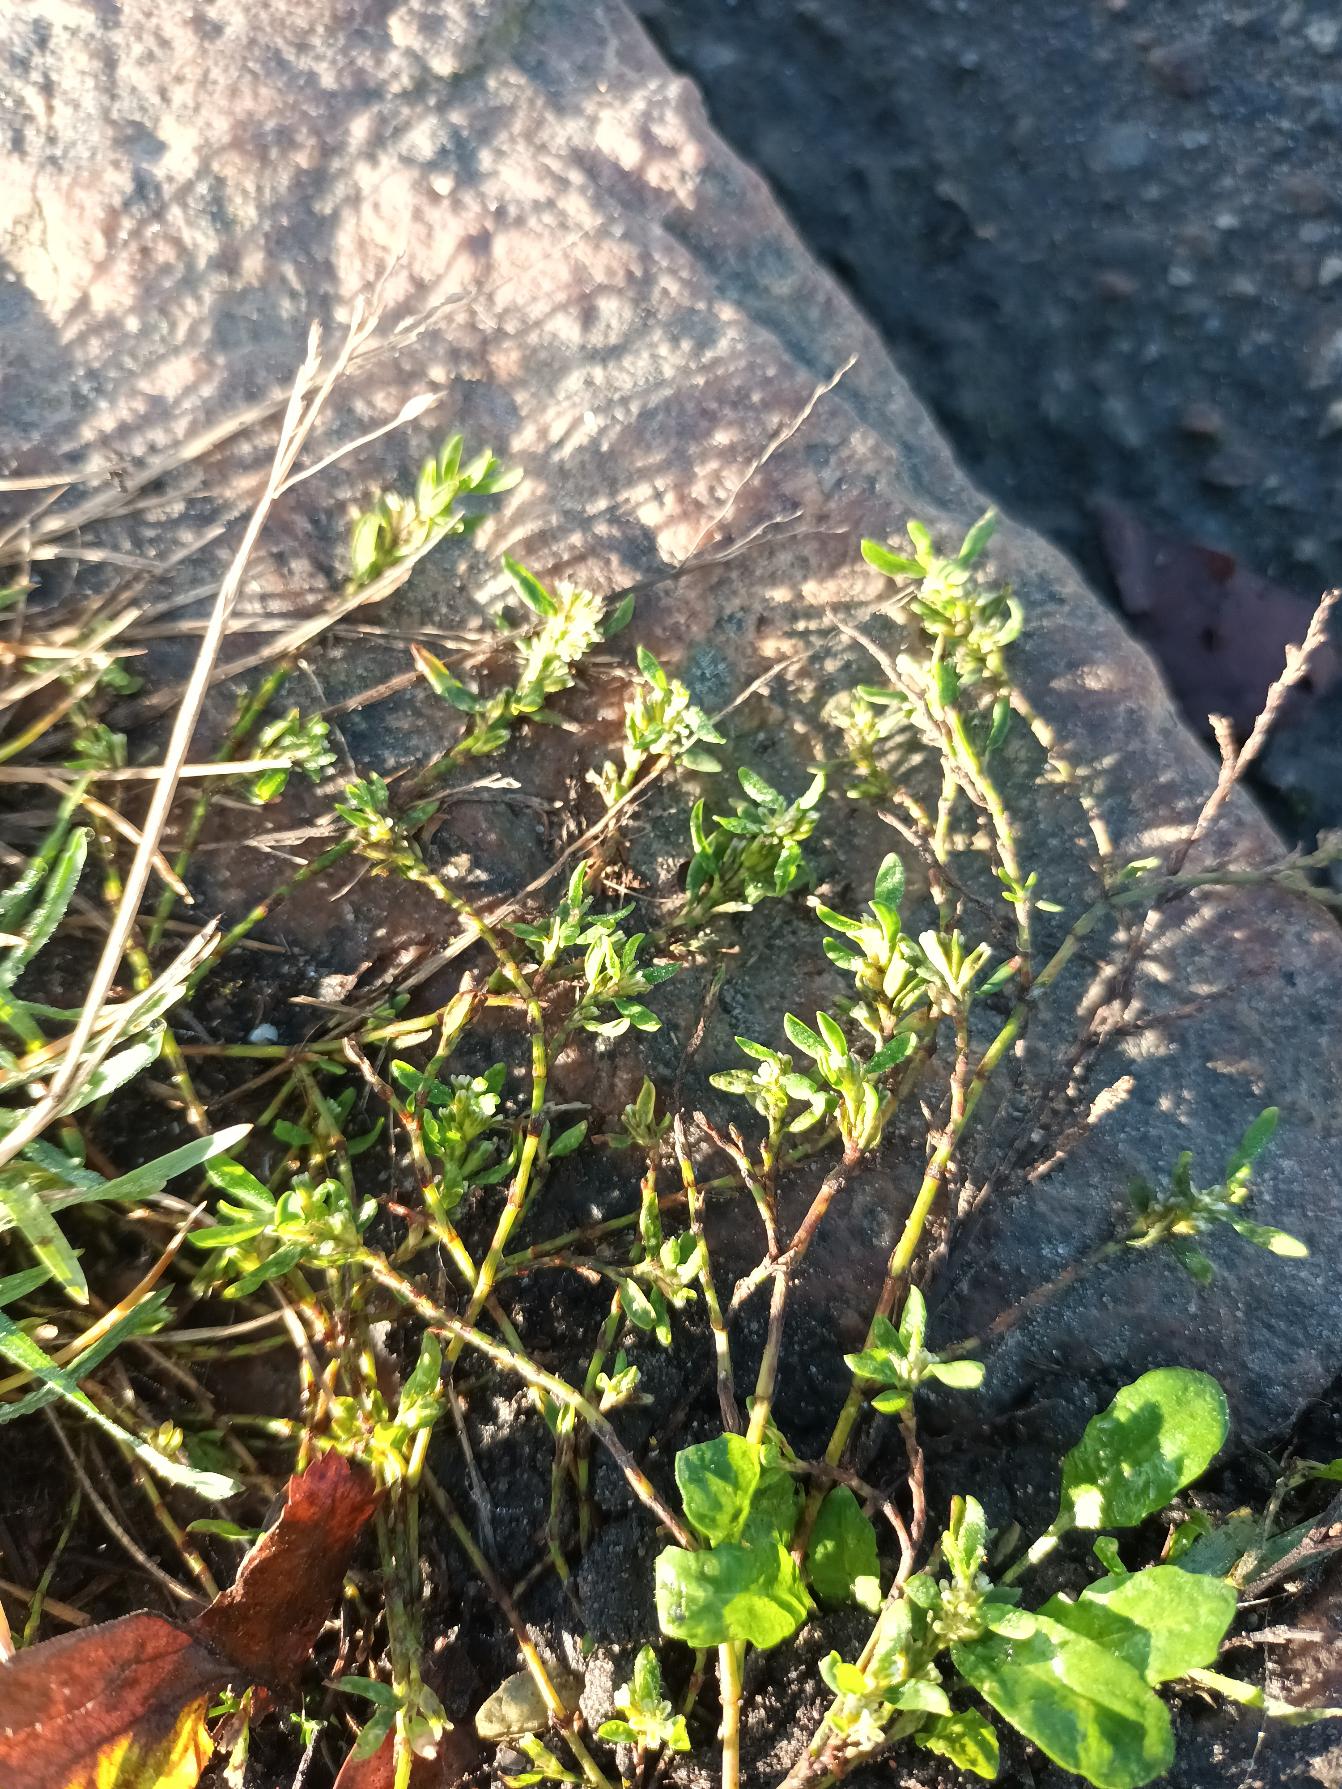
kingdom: Plantae
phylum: Tracheophyta
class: Magnoliopsida
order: Caryophyllales
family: Polygonaceae
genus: Polygonum
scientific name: Polygonum arenastrum
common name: Liggende vej-pileurt
